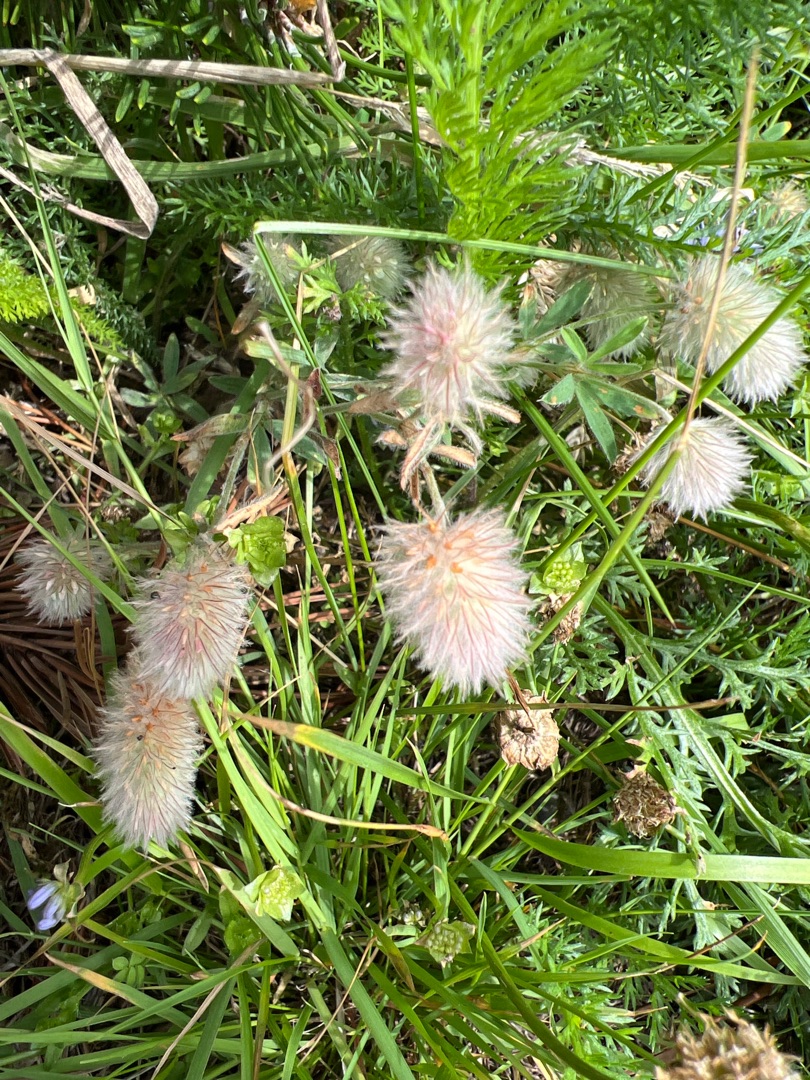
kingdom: Plantae
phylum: Tracheophyta
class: Magnoliopsida
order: Fabales
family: Fabaceae
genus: Trifolium
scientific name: Trifolium arvense
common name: Hare-kløver
